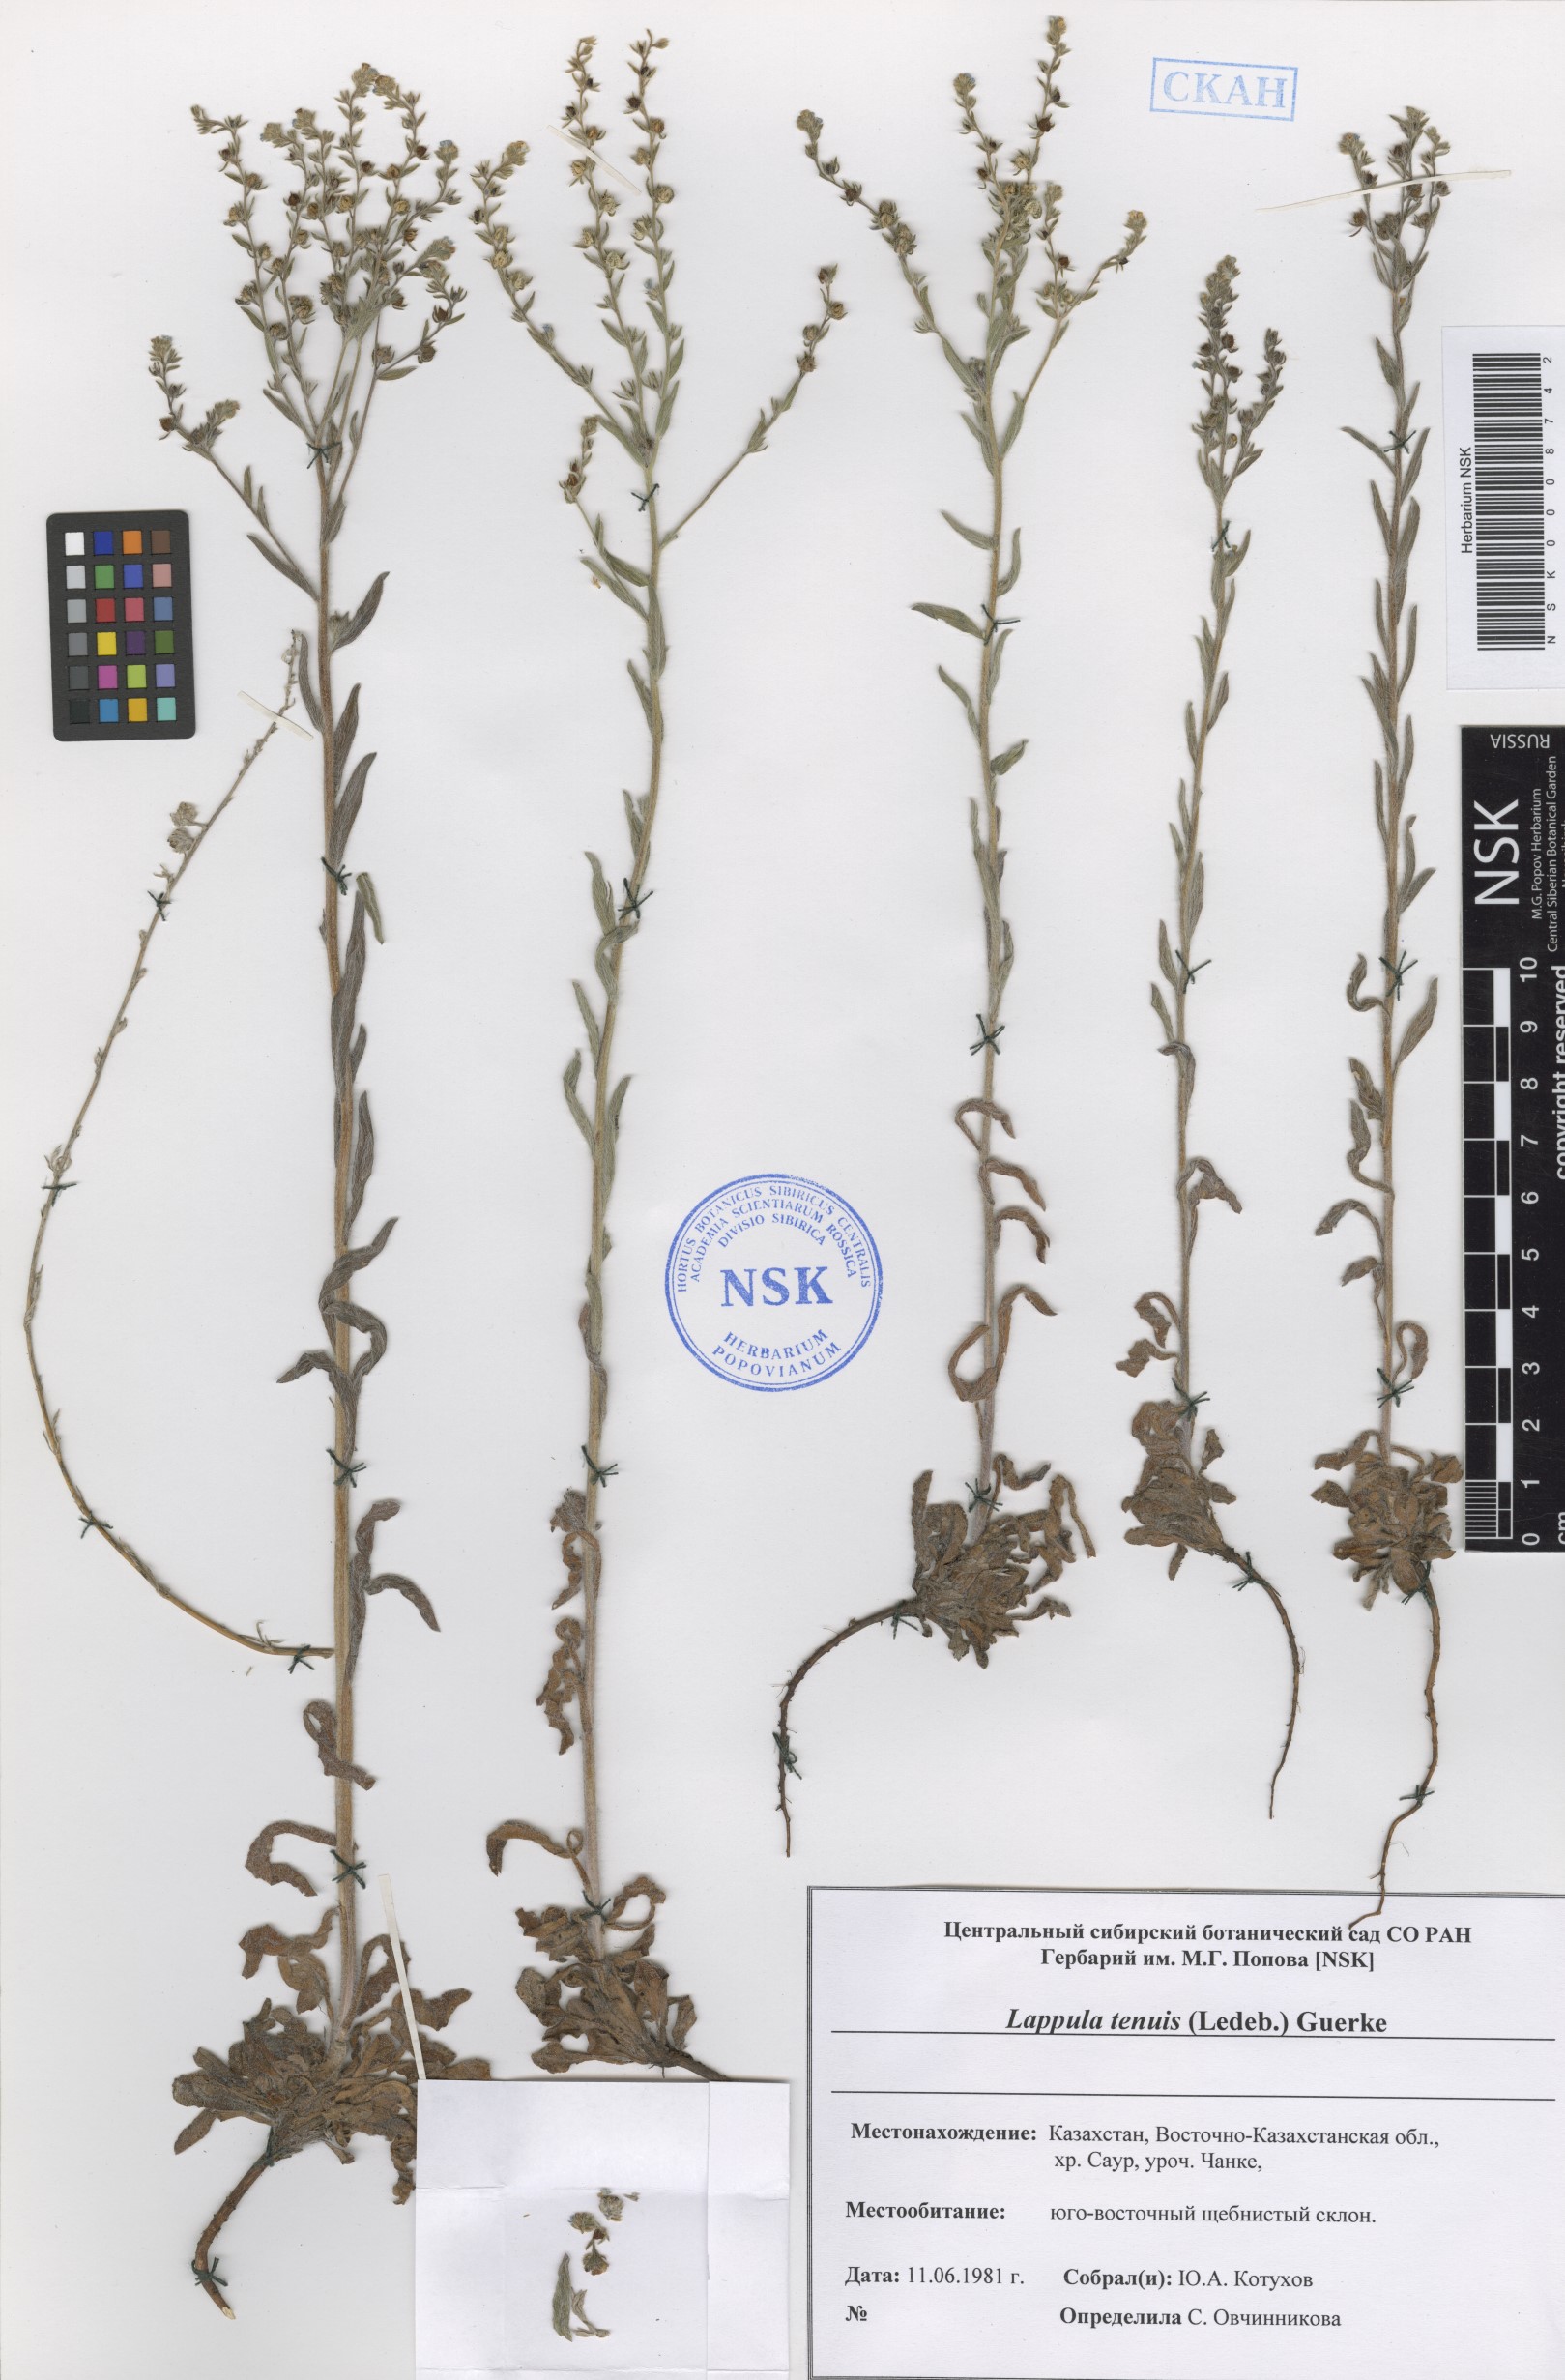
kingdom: Plantae
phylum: Tracheophyta
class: Magnoliopsida
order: Boraginales
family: Boraginaceae
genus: Lappula
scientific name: Lappula tenuis
